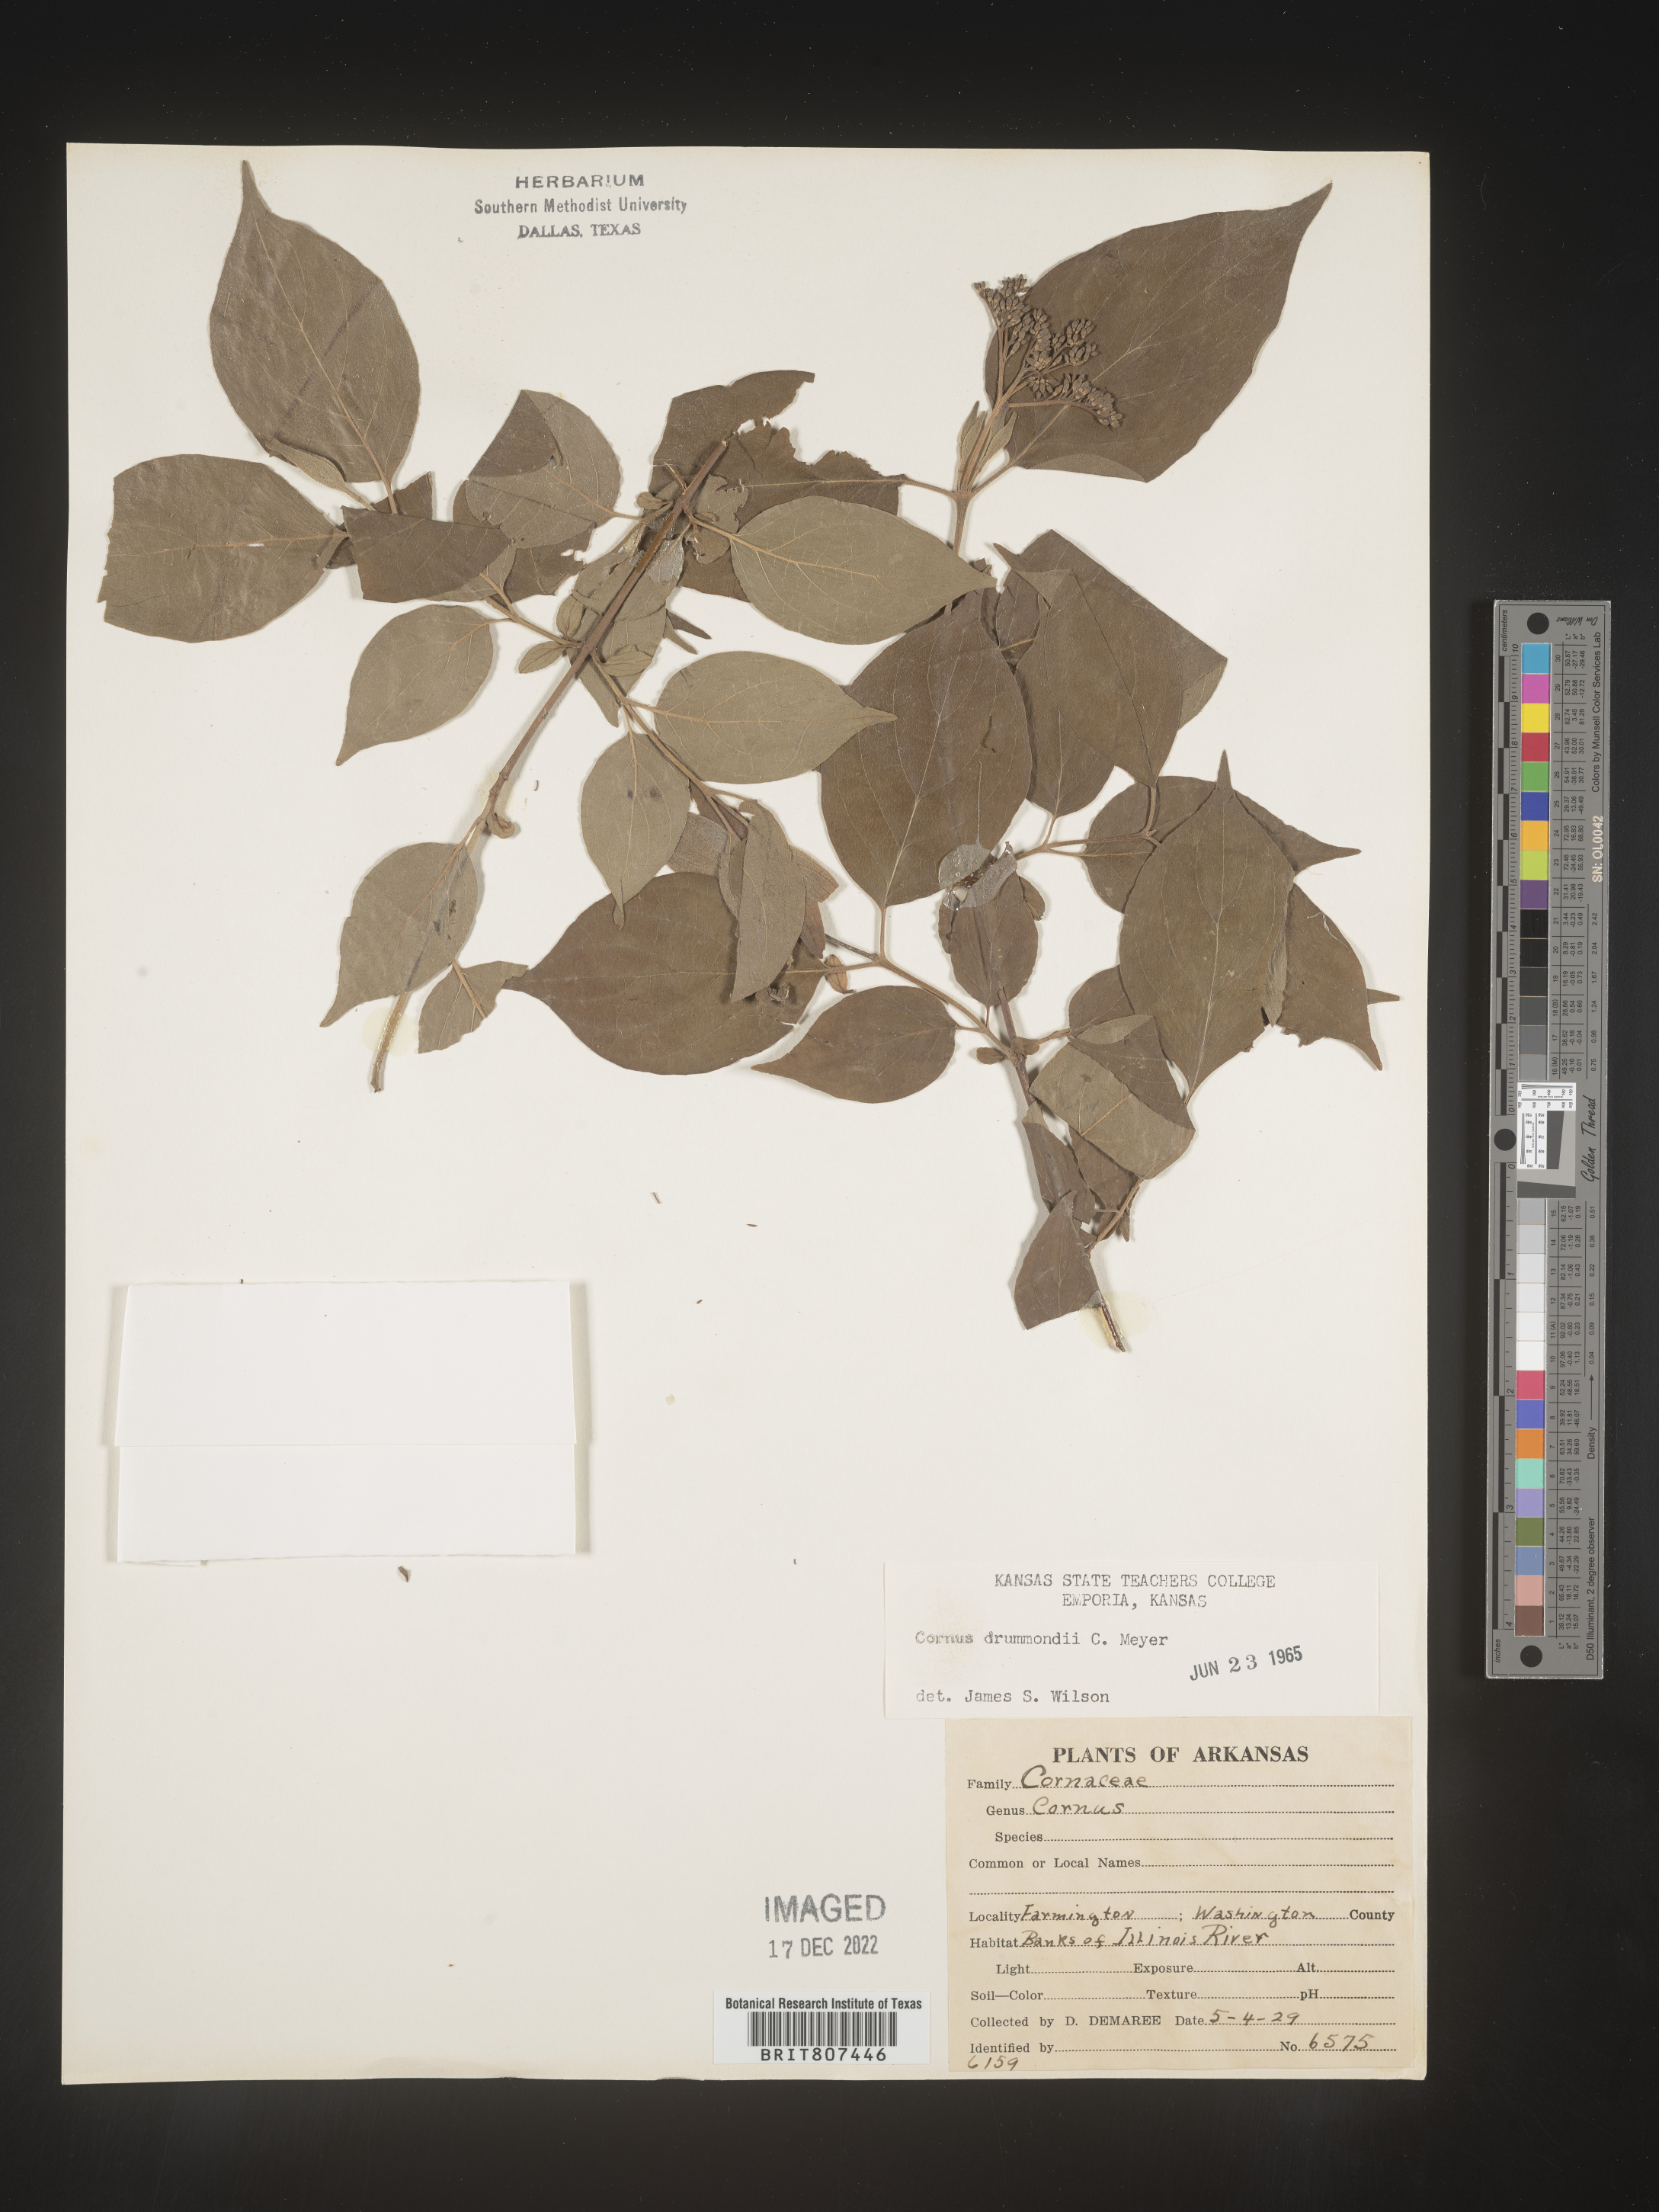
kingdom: Plantae
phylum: Tracheophyta
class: Magnoliopsida
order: Cornales
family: Cornaceae
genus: Cornus
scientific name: Cornus drummondii
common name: Rough-leaf dogwood
